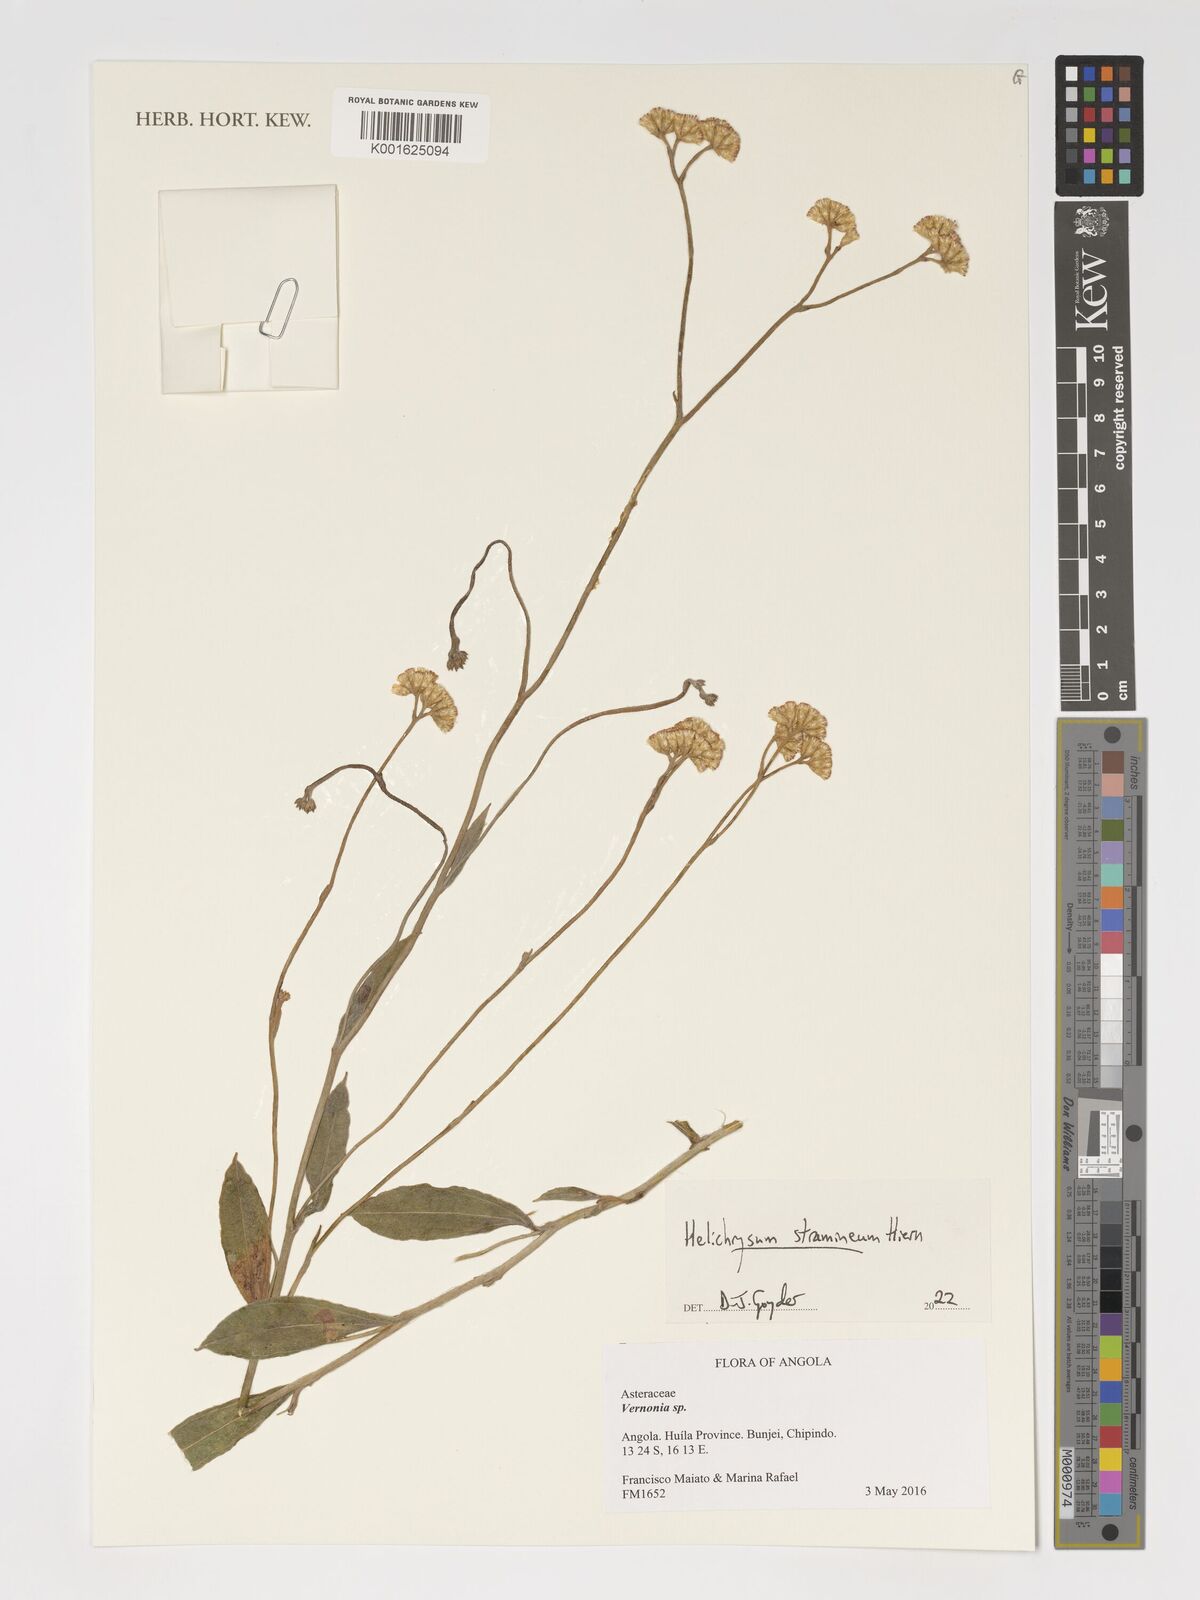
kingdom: Plantae
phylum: Tracheophyta
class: Magnoliopsida
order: Asterales
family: Asteraceae
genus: Helichrysum
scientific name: Helichrysum stramineum
